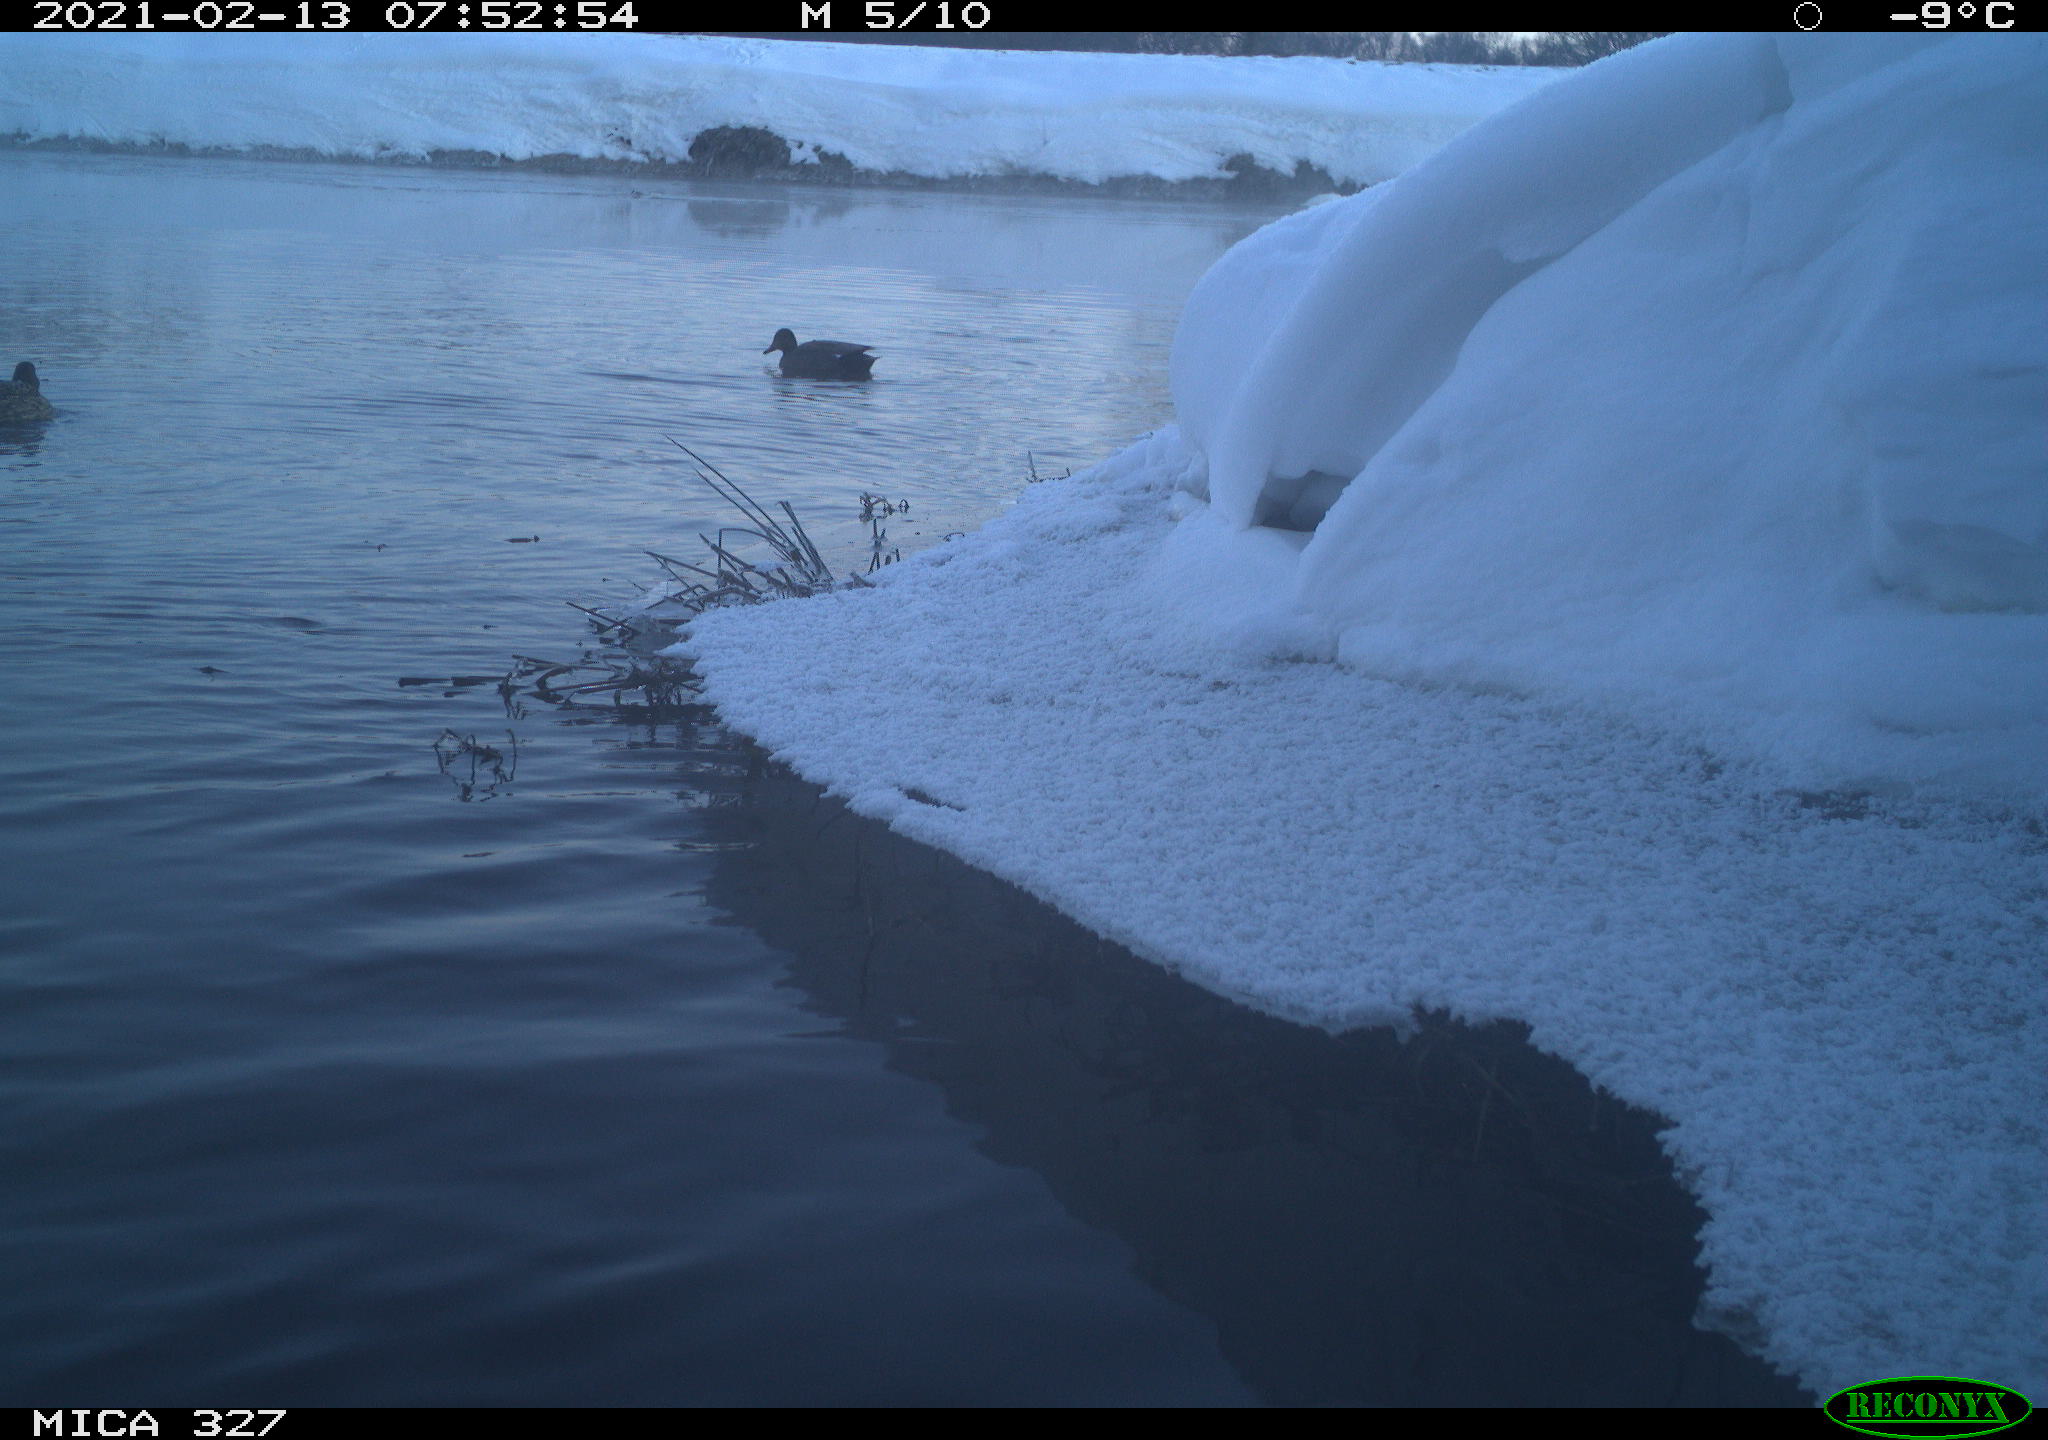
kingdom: Animalia
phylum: Chordata
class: Aves
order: Anseriformes
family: Anatidae
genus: Anas
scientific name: Anas
